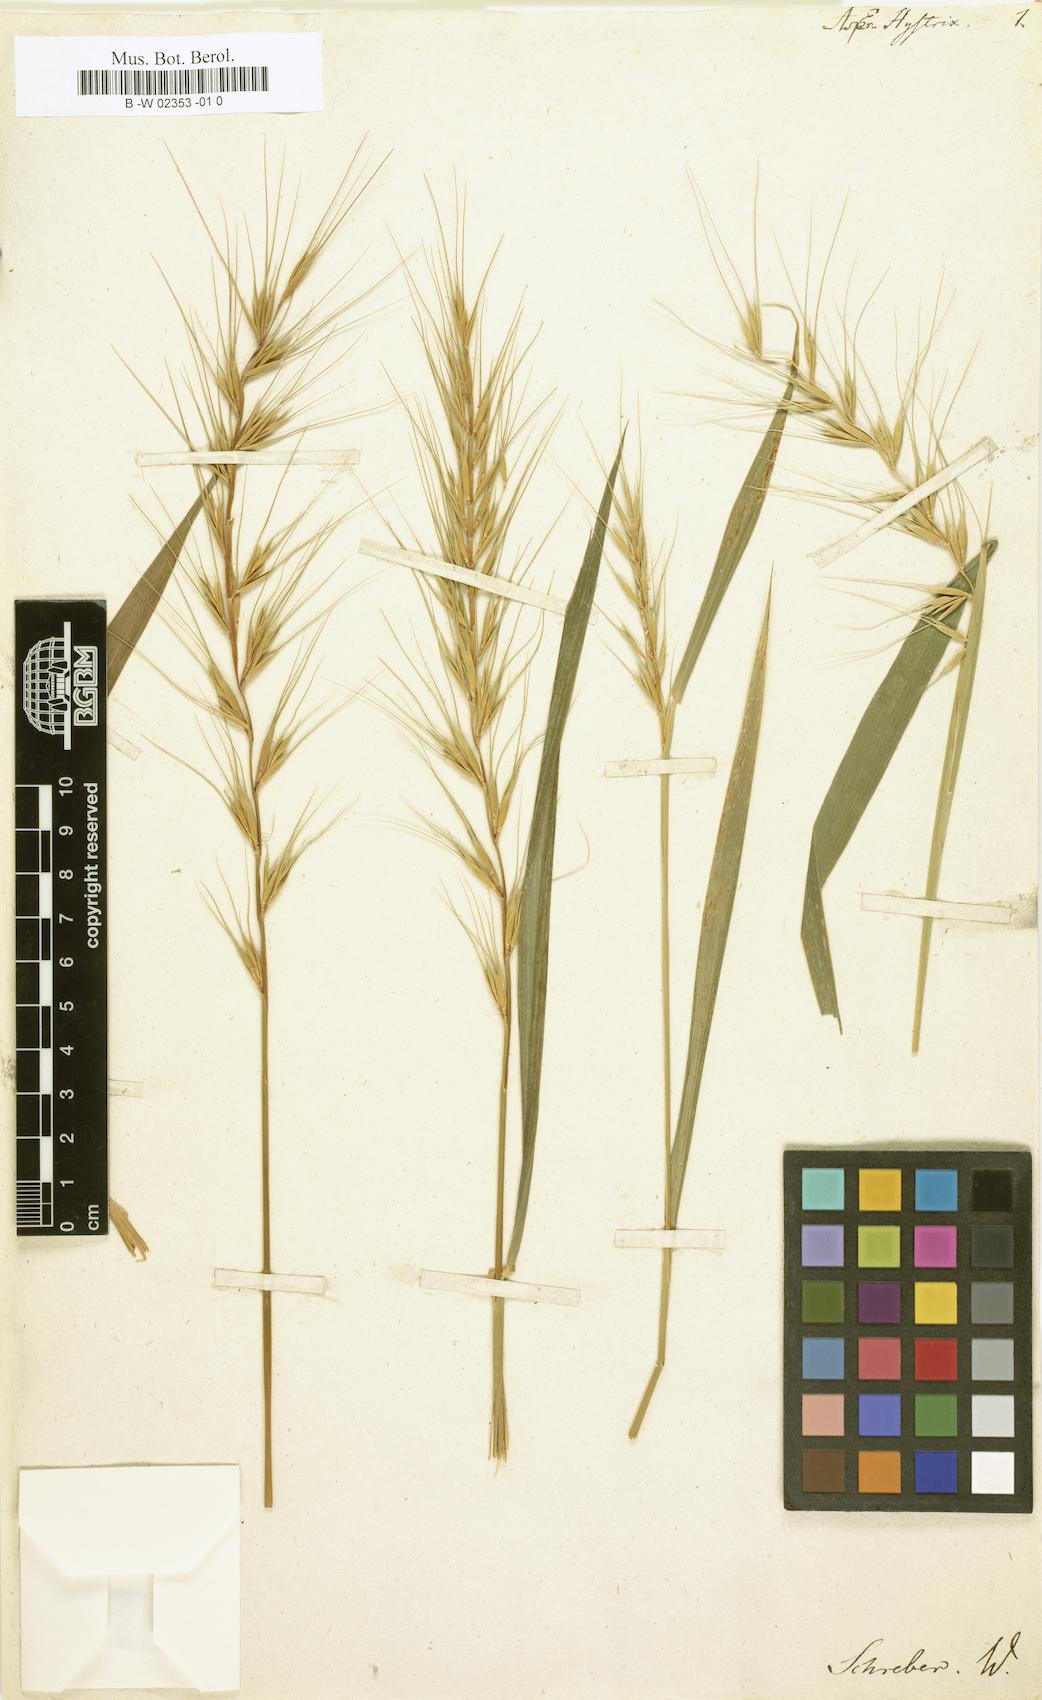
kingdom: Plantae
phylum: Tracheophyta
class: Liliopsida
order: Poales
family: Poaceae
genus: Elymus
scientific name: Elymus hystrix
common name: Bottlebrush grass
